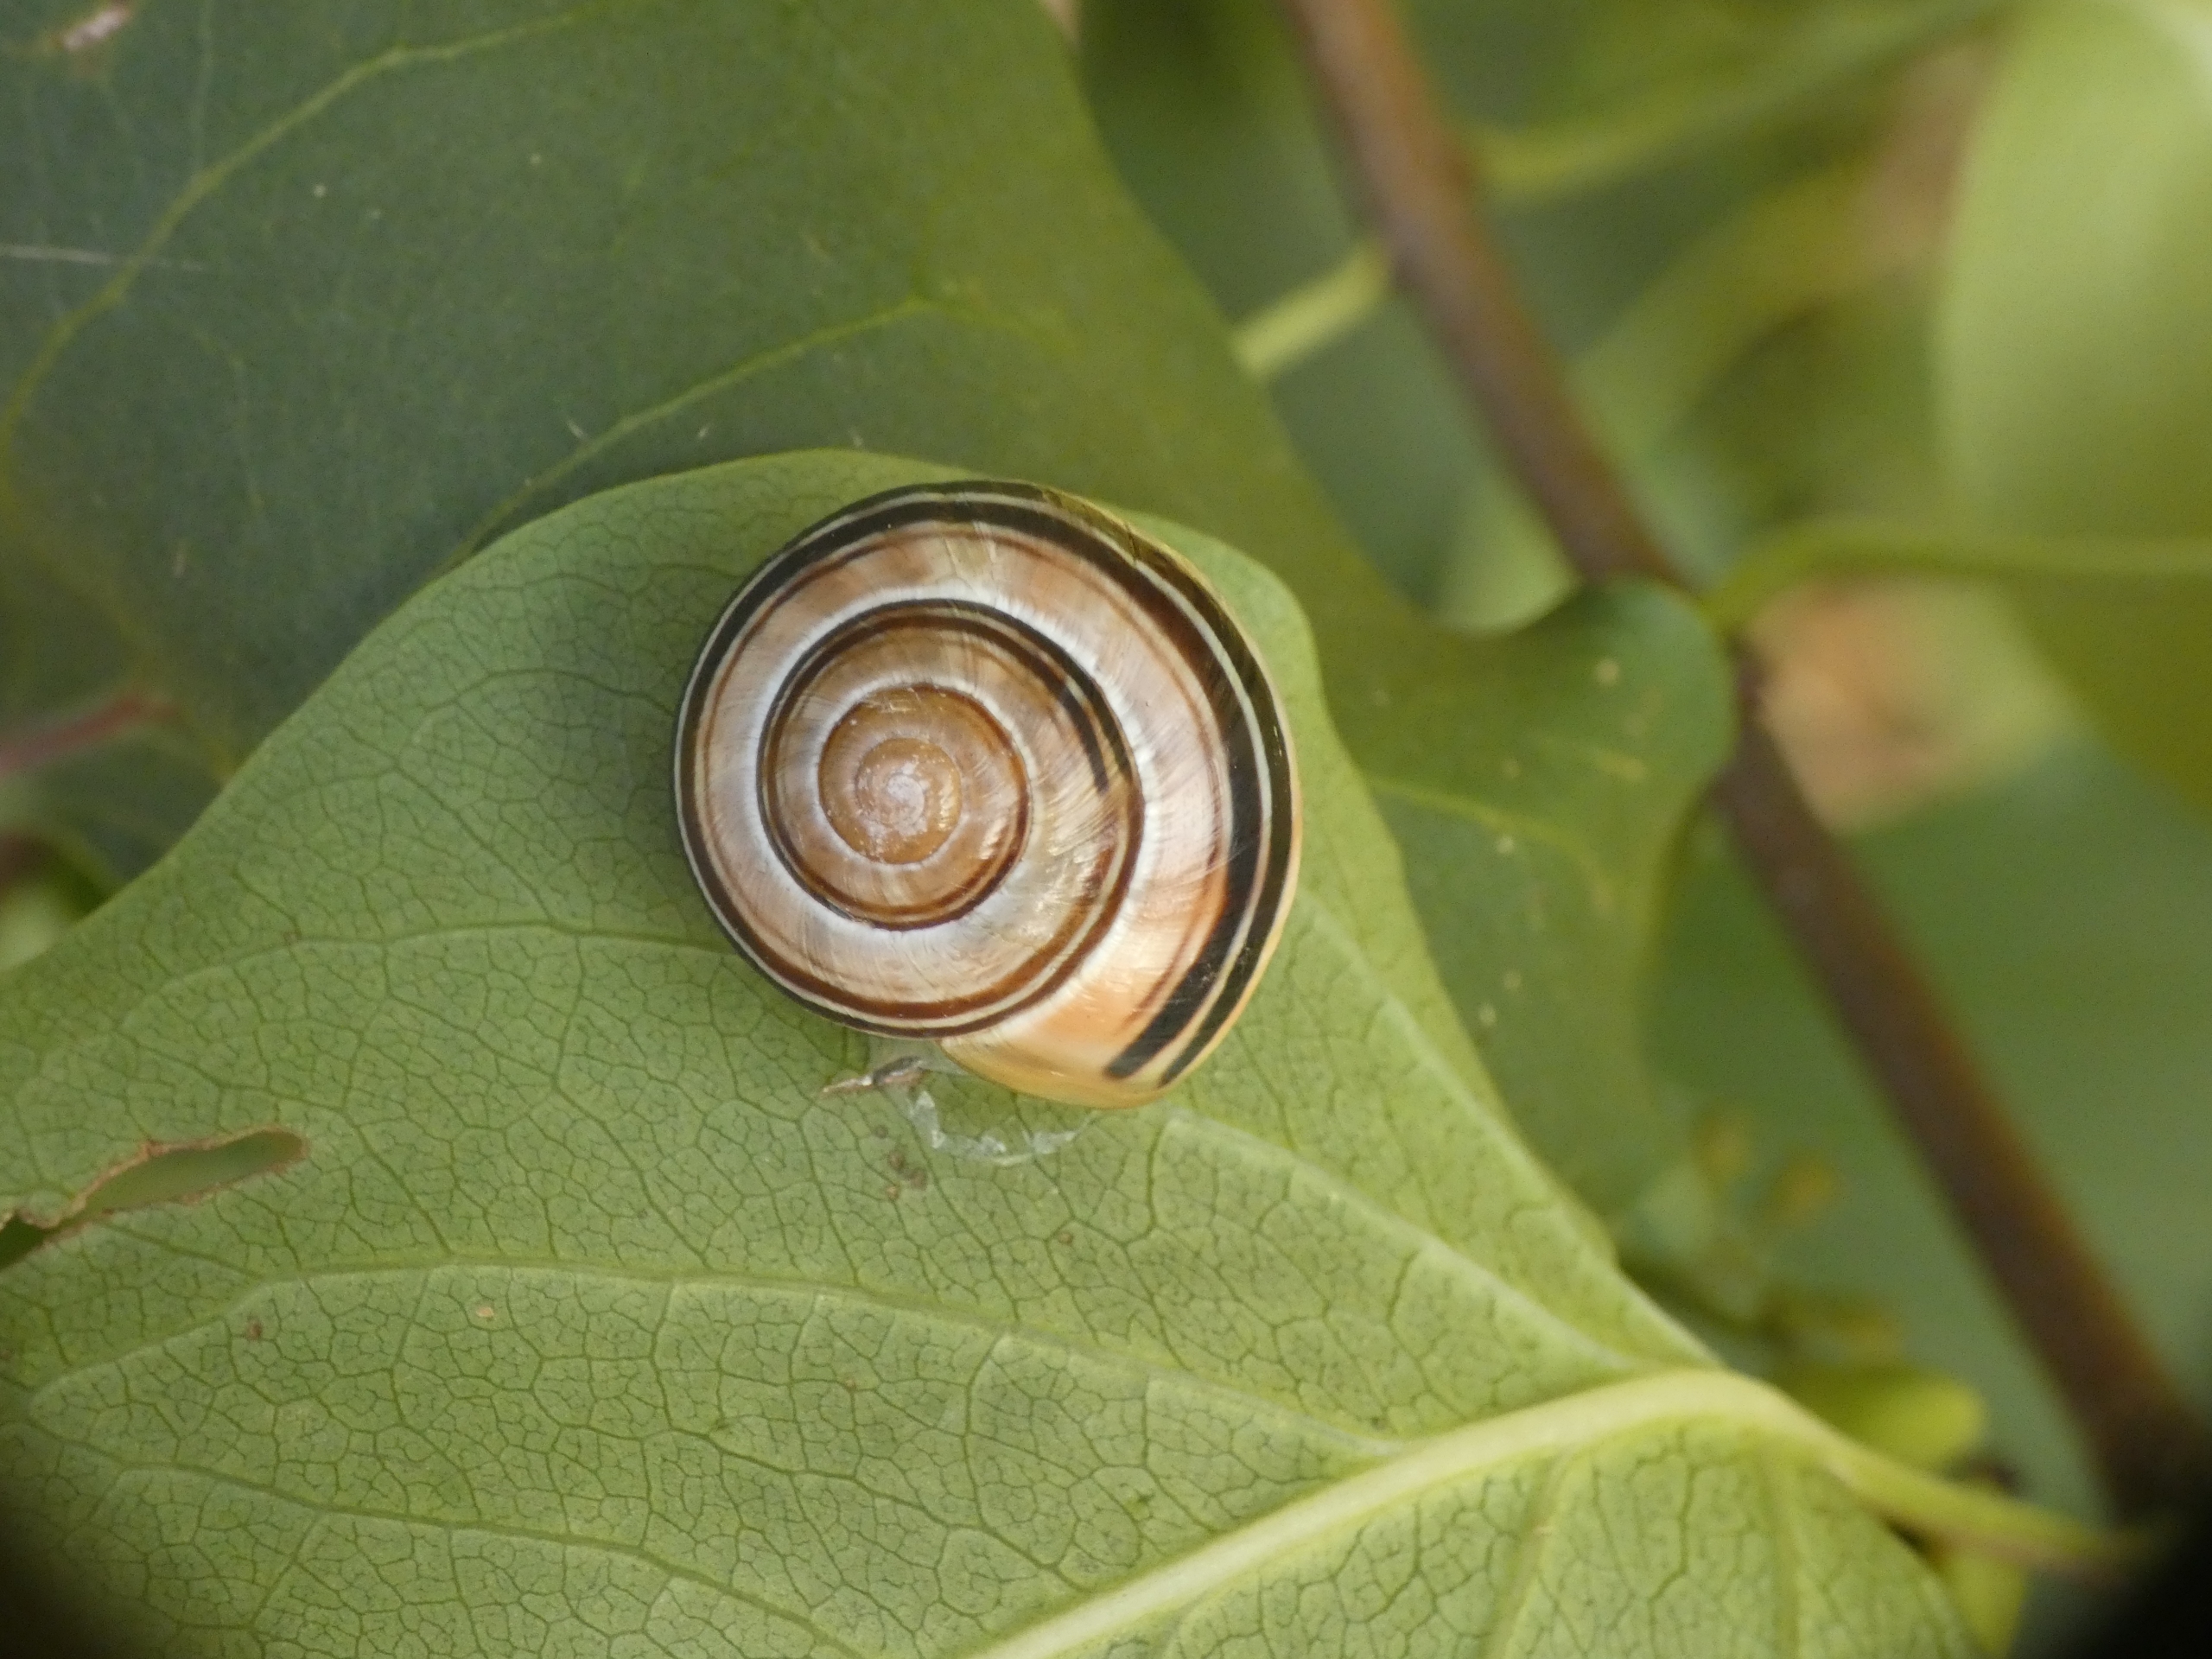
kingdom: Animalia
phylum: Mollusca
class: Gastropoda
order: Stylommatophora
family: Helicidae
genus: Cepaea
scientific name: Cepaea hortensis
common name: Havesnegl
